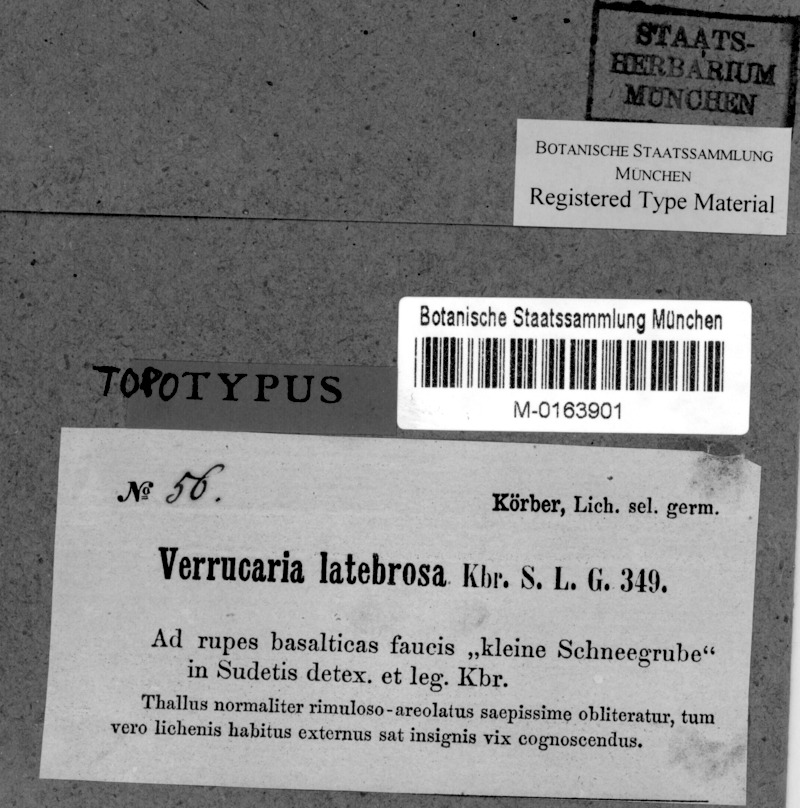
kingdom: Fungi
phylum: Ascomycota
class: Eurotiomycetes
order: Verrucariales
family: Verrucariaceae
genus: Verrucaria
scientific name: Verrucaria latebrosa
